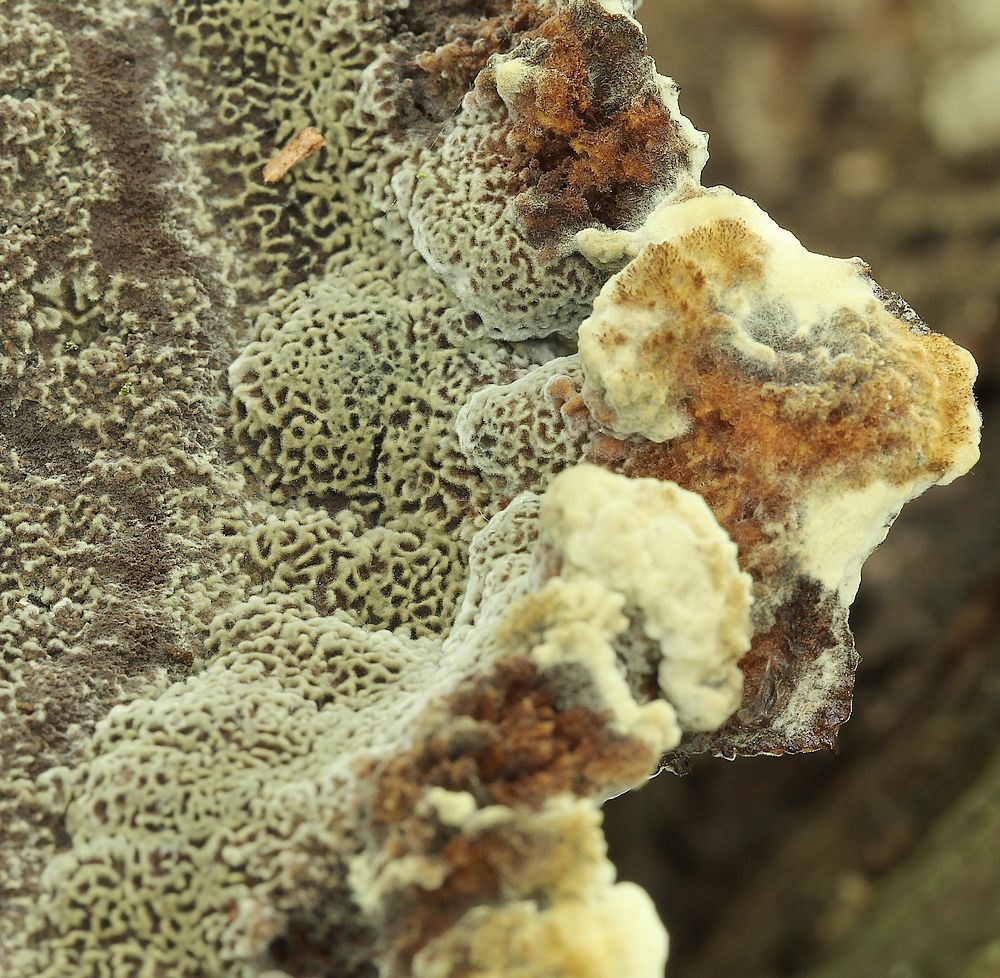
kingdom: Fungi
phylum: Basidiomycota
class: Agaricomycetes
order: Polyporales
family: Laetiporaceae
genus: Phaeolus
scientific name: Phaeolus schweinitzii
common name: brunporesvamp
